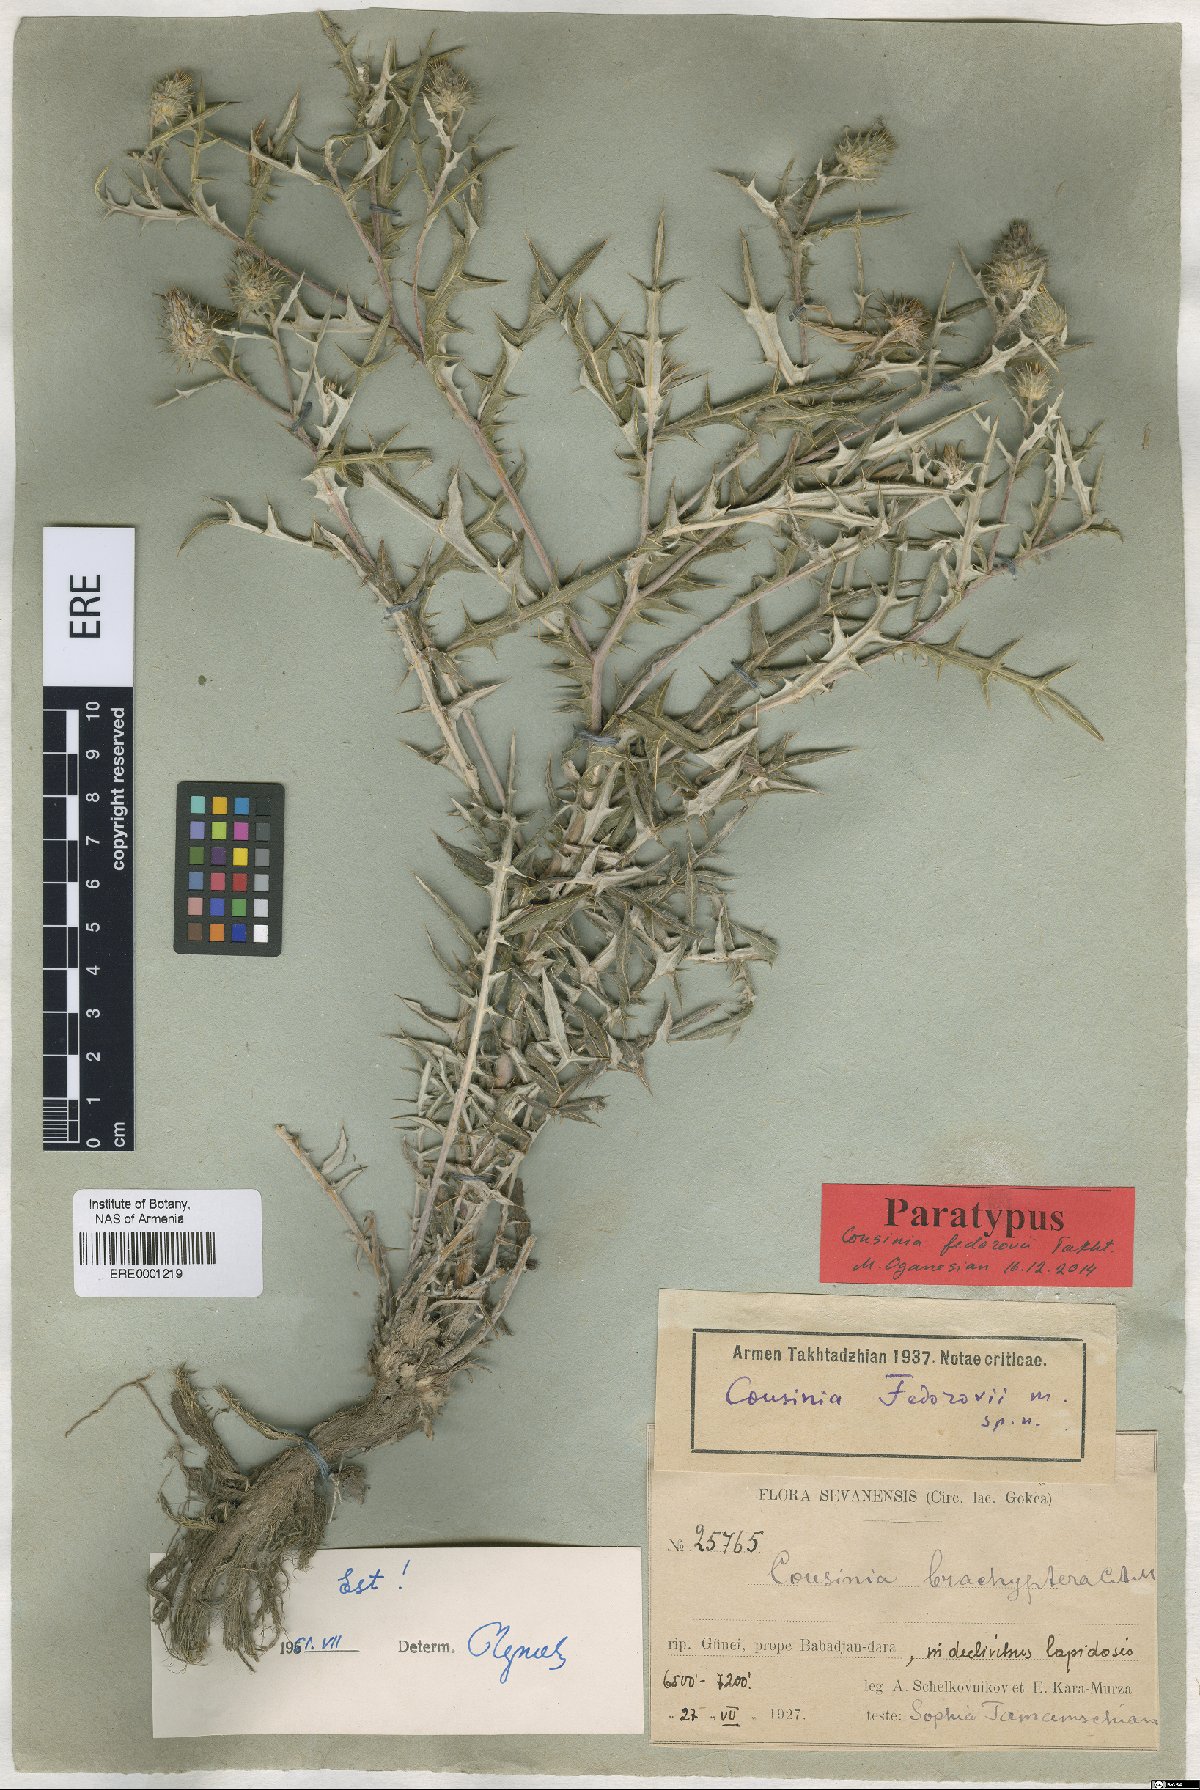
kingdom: Plantae
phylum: Tracheophyta
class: Magnoliopsida
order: Asterales
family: Asteraceae
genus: Cousinia
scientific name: Cousinia fedorovii
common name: Fedorov's cousinia
